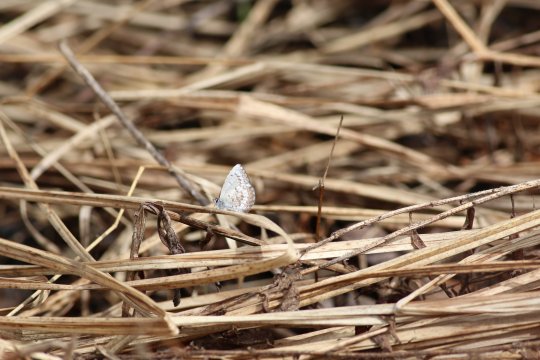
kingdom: Animalia
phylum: Arthropoda
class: Insecta
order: Lepidoptera
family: Lycaenidae
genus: Celastrina
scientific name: Celastrina lucia
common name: Northern Spring Azure
